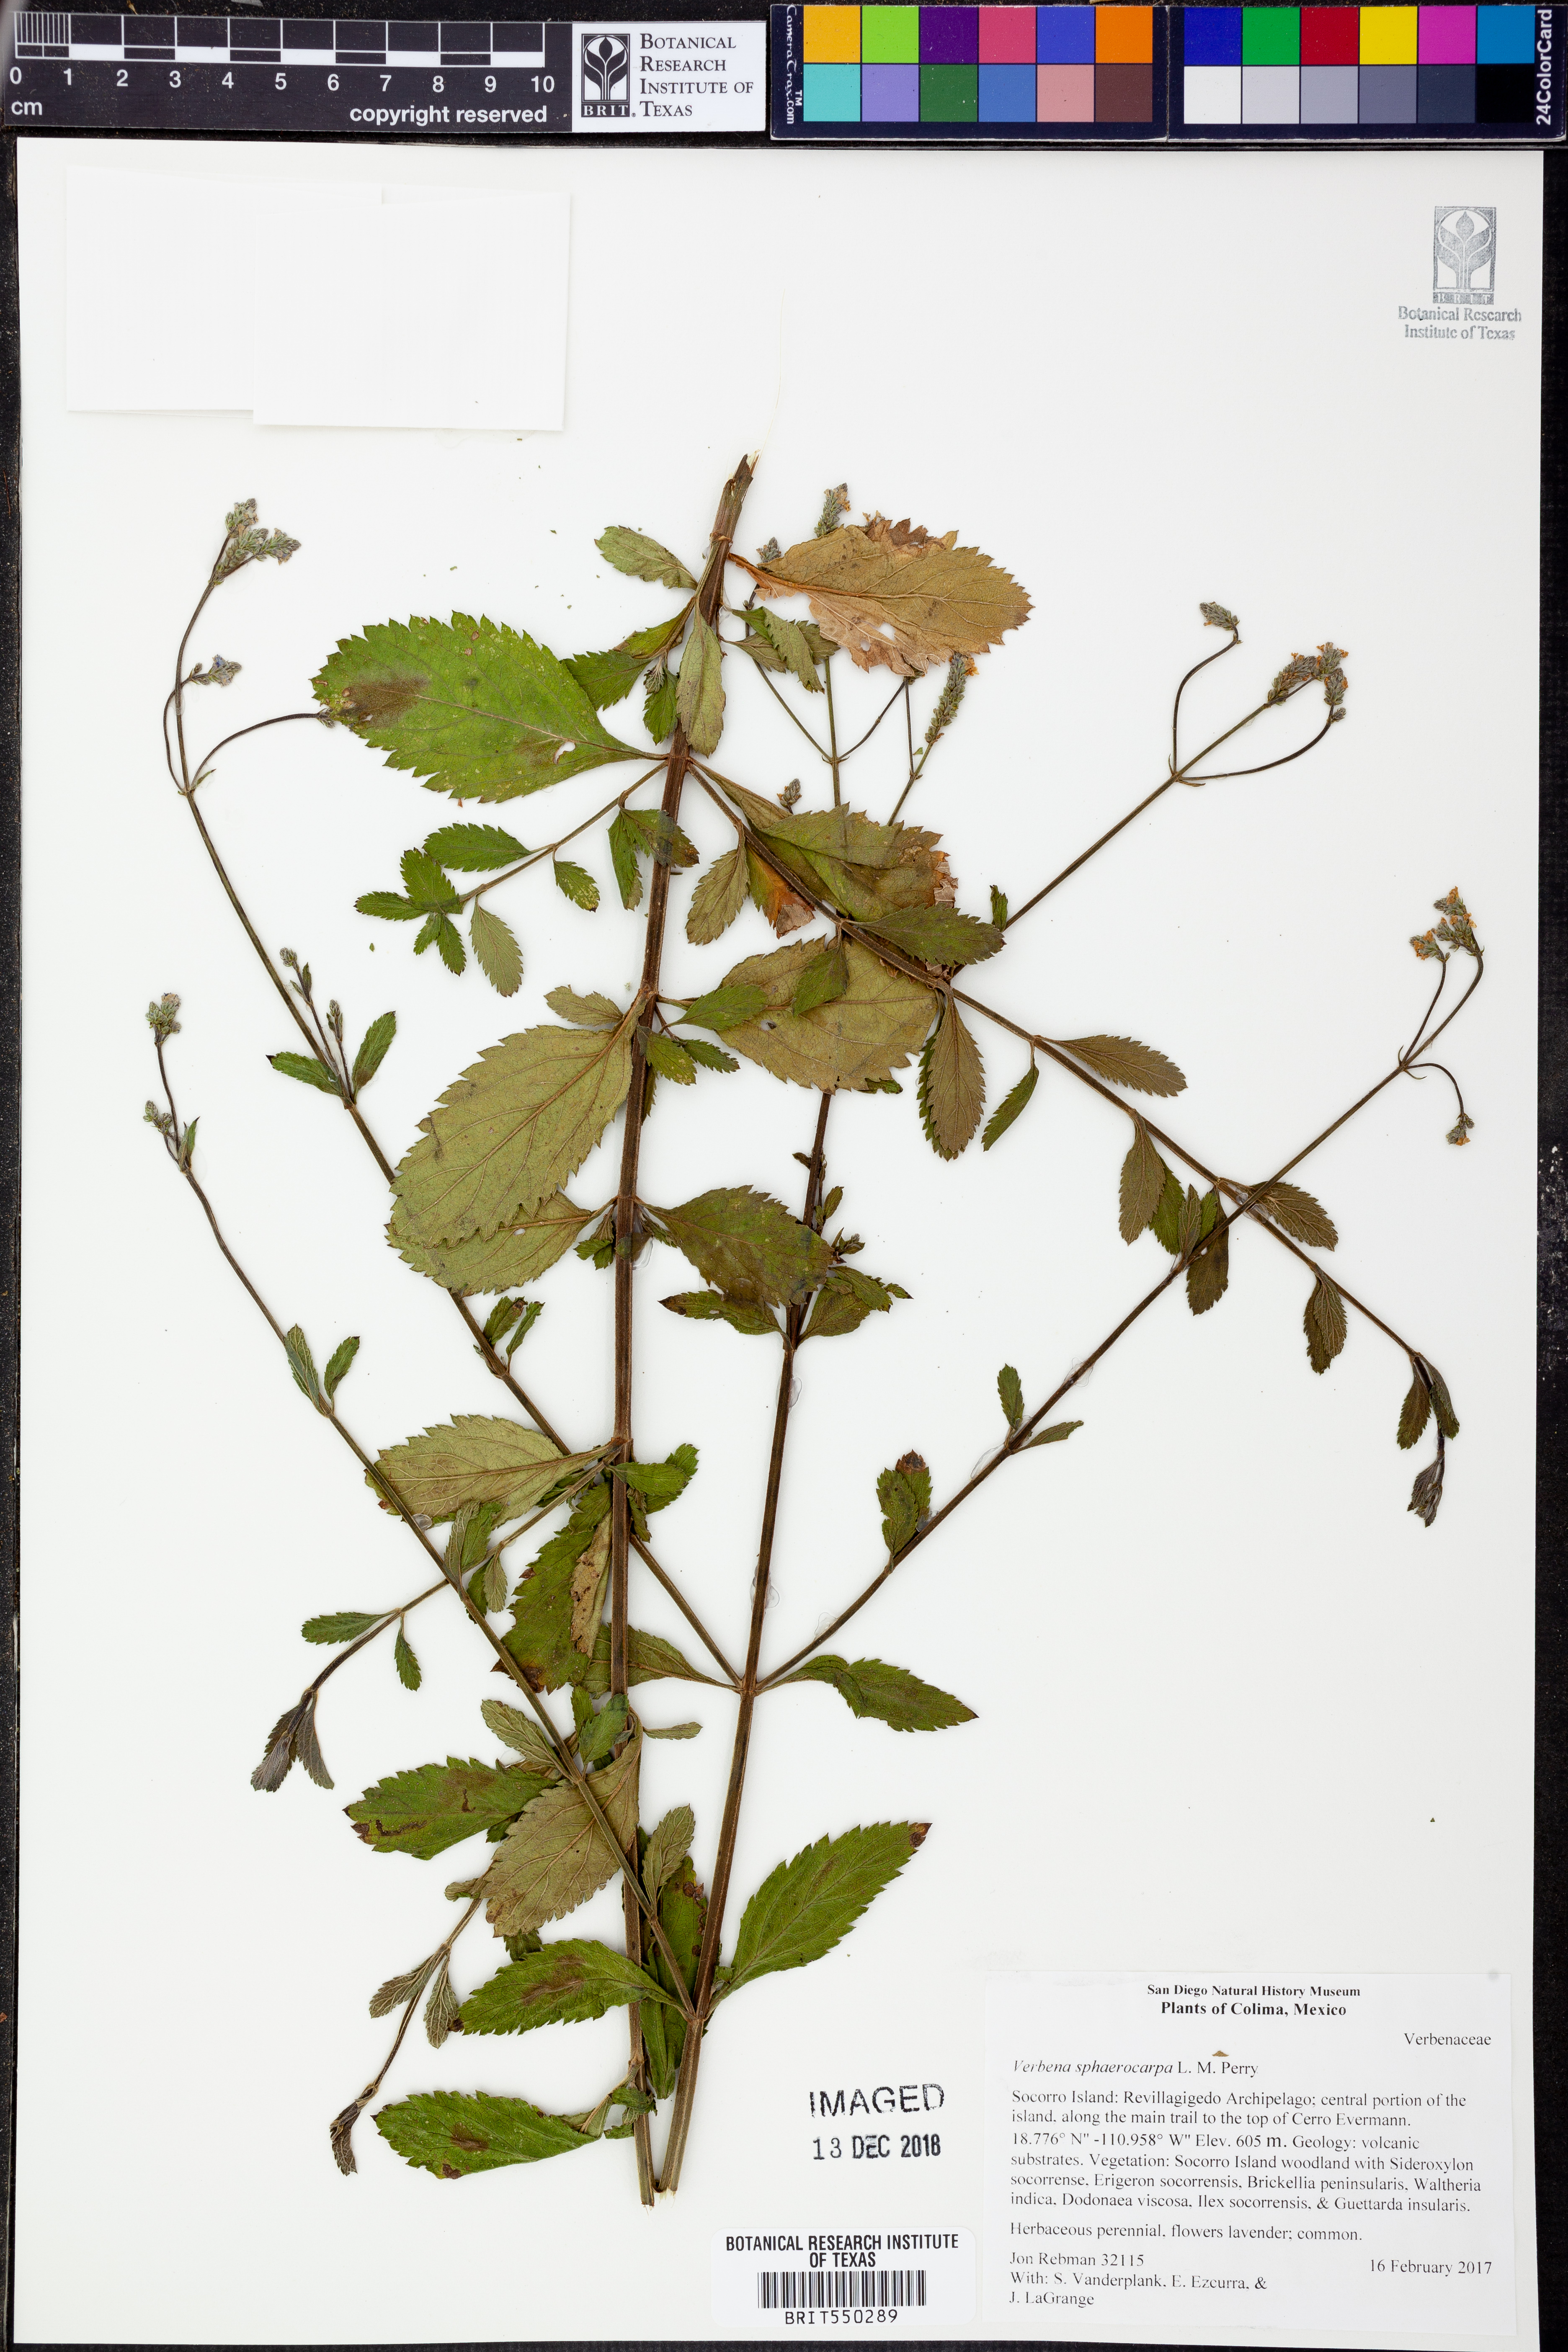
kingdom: Plantae
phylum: Tracheophyta
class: Magnoliopsida
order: Lamiales
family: Verbenaceae
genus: Verbena
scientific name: Verbena sphaerocarpa
